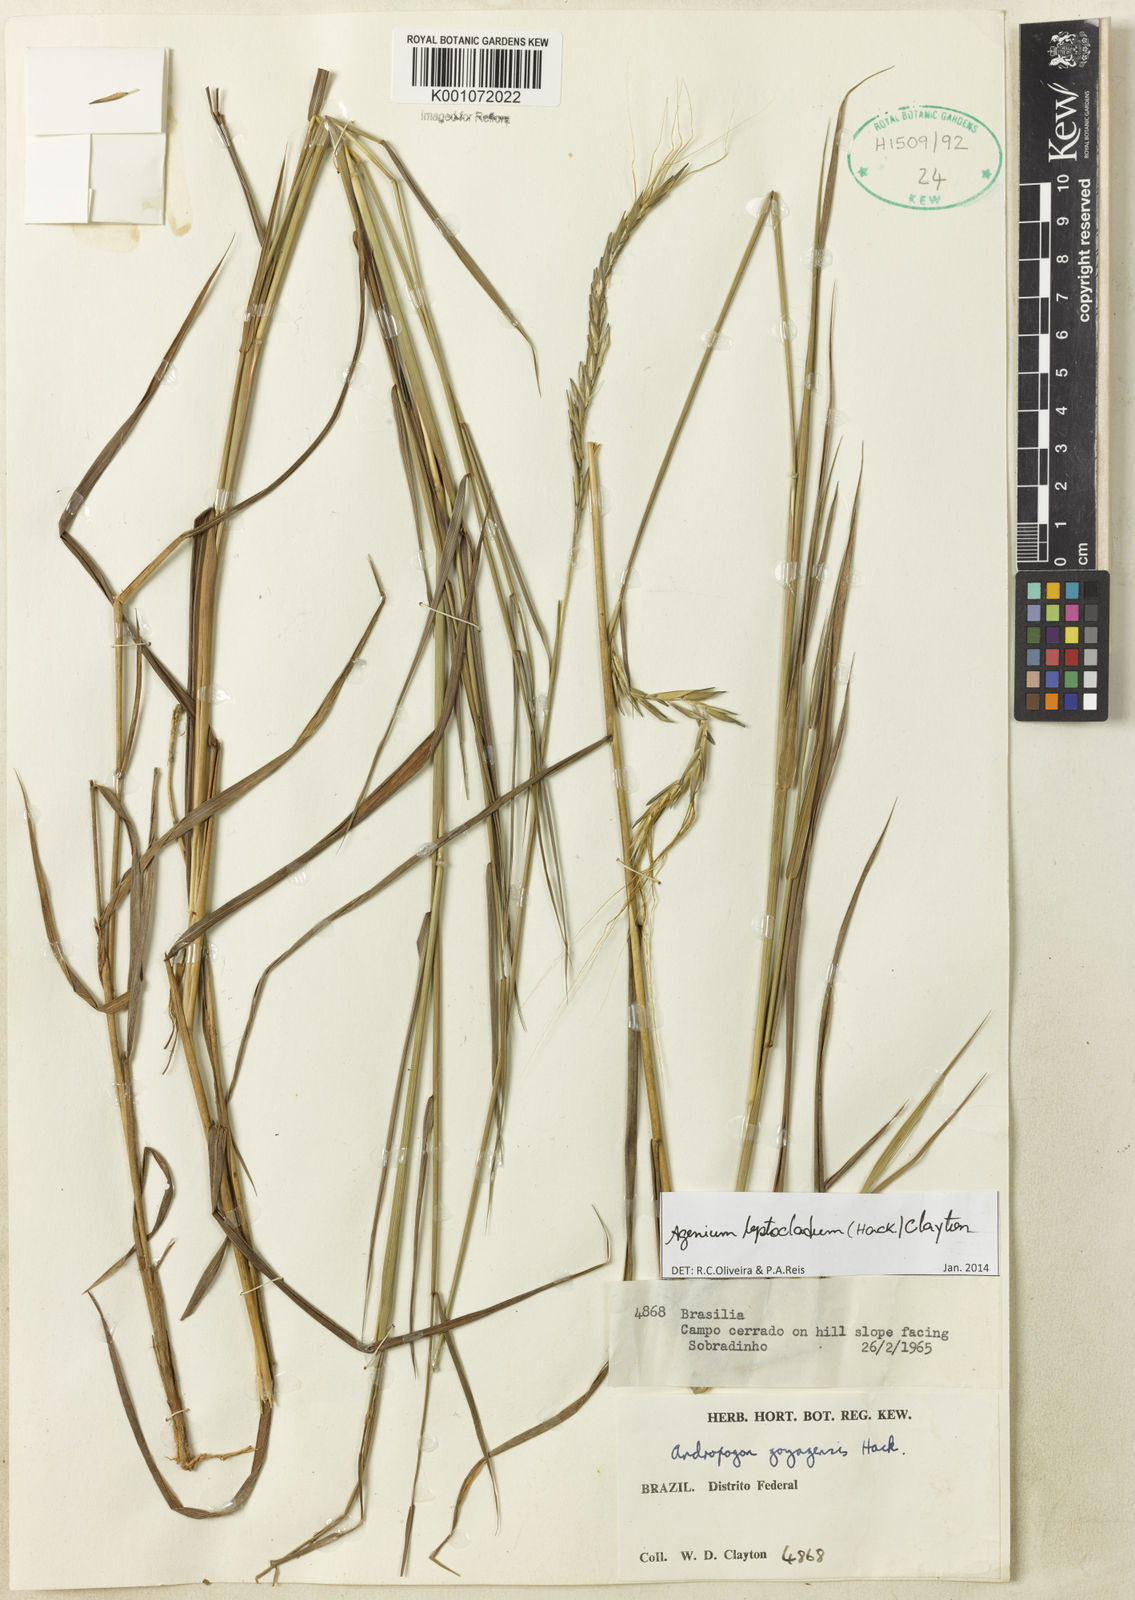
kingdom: Plantae
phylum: Tracheophyta
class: Liliopsida
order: Poales
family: Poaceae
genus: Agenium
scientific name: Agenium leptocladum
